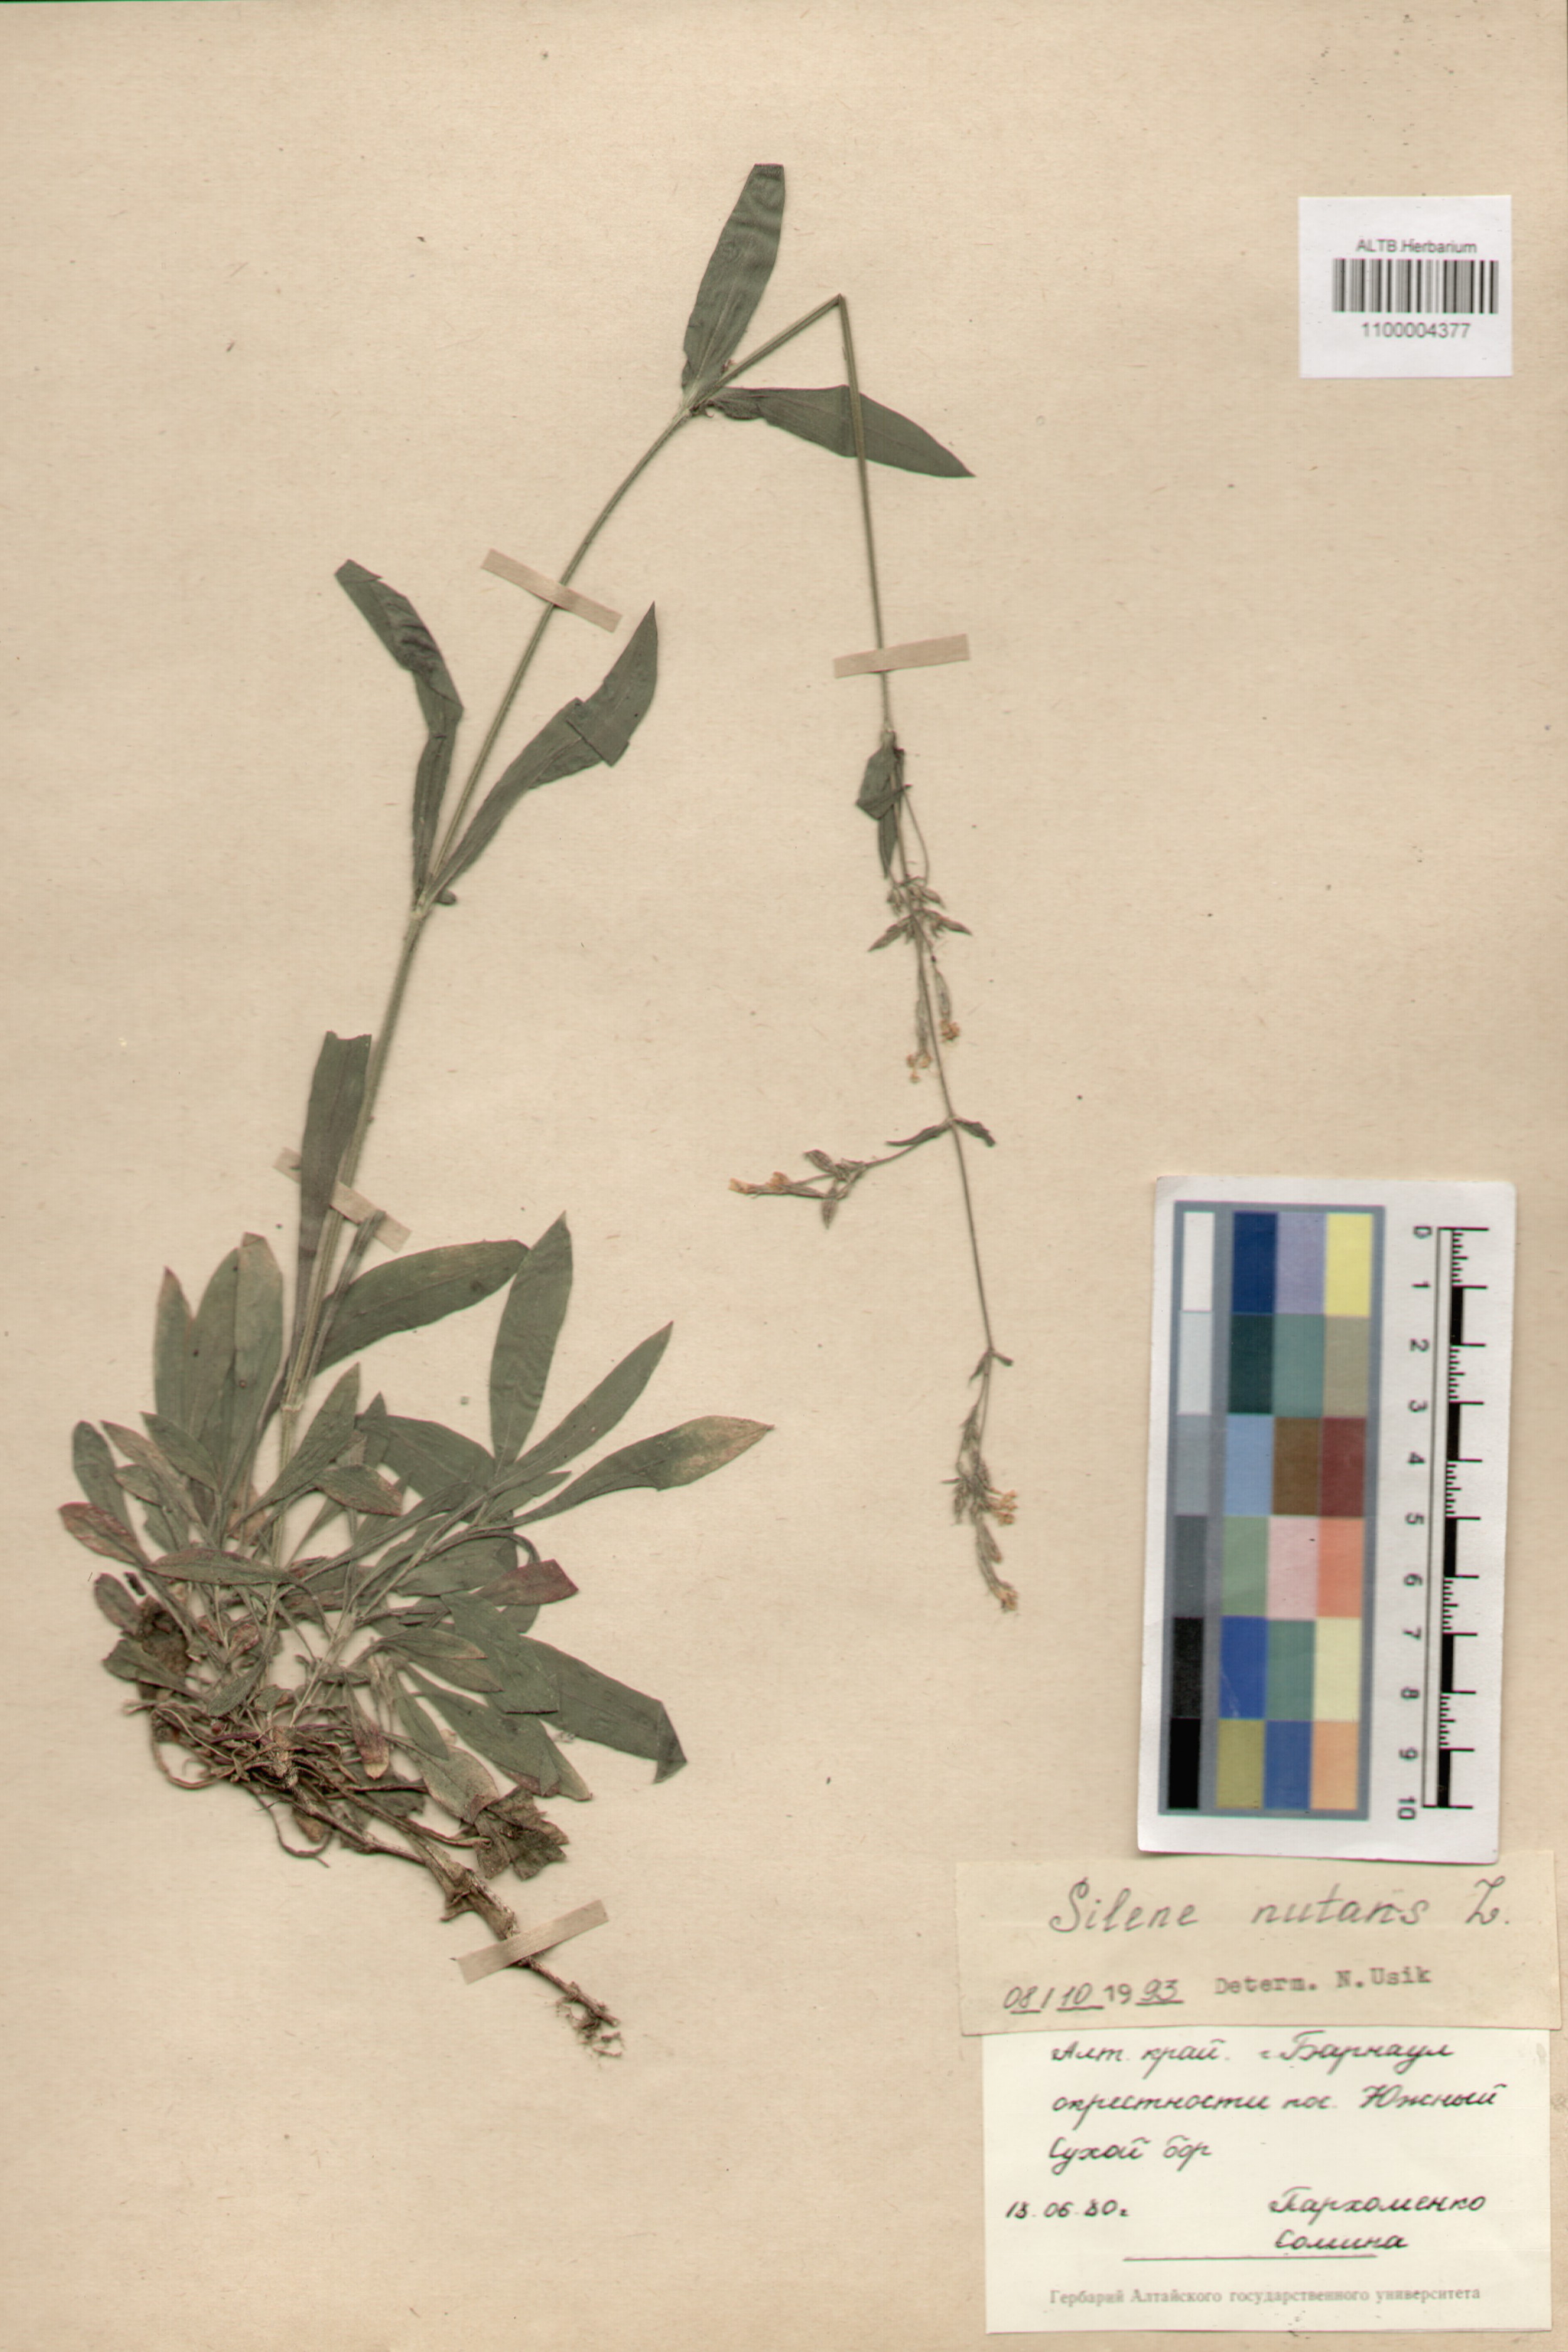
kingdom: Plantae
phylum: Tracheophyta
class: Magnoliopsida
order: Caryophyllales
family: Caryophyllaceae
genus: Silene
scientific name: Silene nutans
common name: Nottingham catchfly
